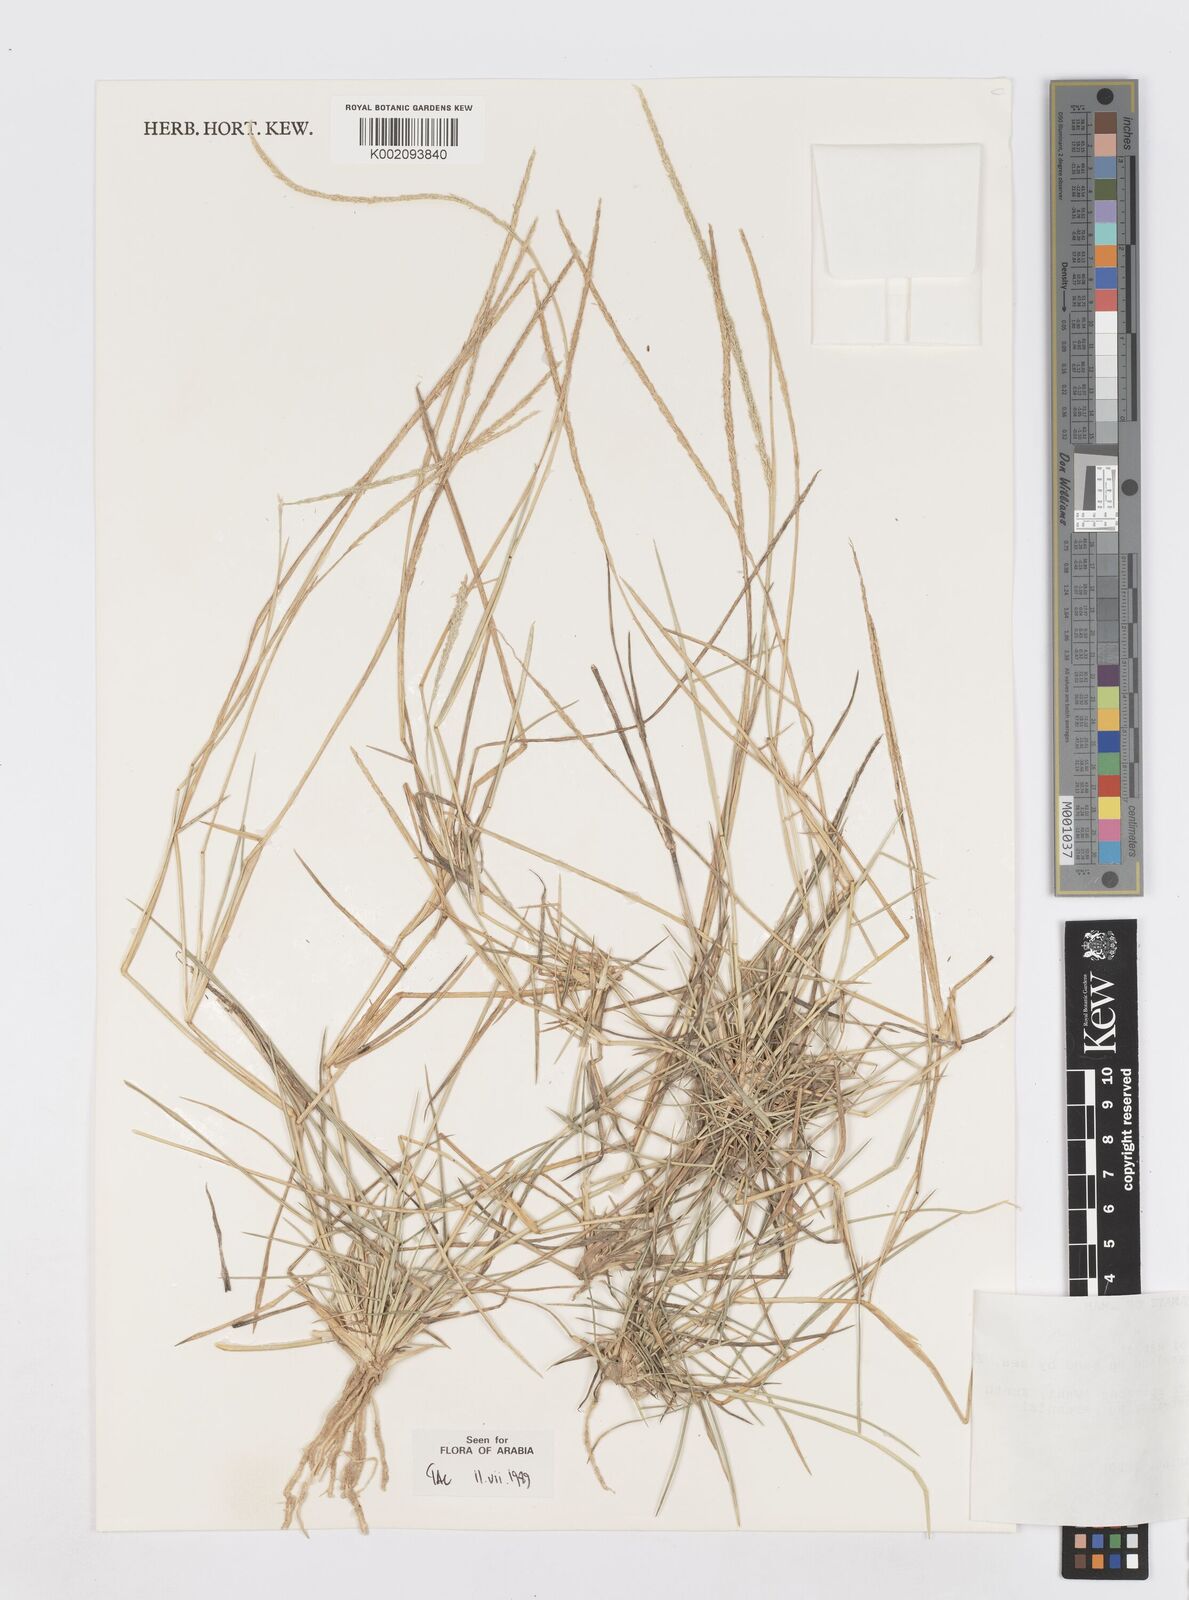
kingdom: Plantae
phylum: Tracheophyta
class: Liliopsida
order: Poales
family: Poaceae
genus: Sporobolus
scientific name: Sporobolus spicatus
